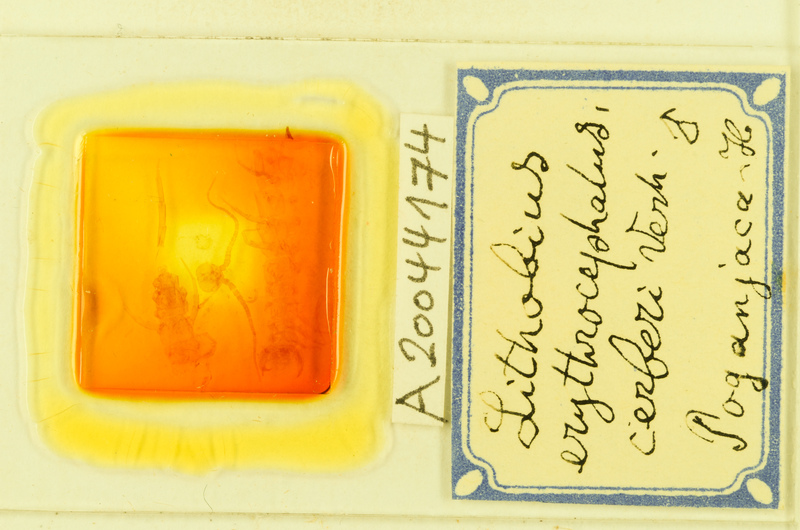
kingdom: Animalia
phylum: Arthropoda
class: Chilopoda
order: Lithobiomorpha
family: Lithobiidae
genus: Lithobius
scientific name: Lithobius stygius
